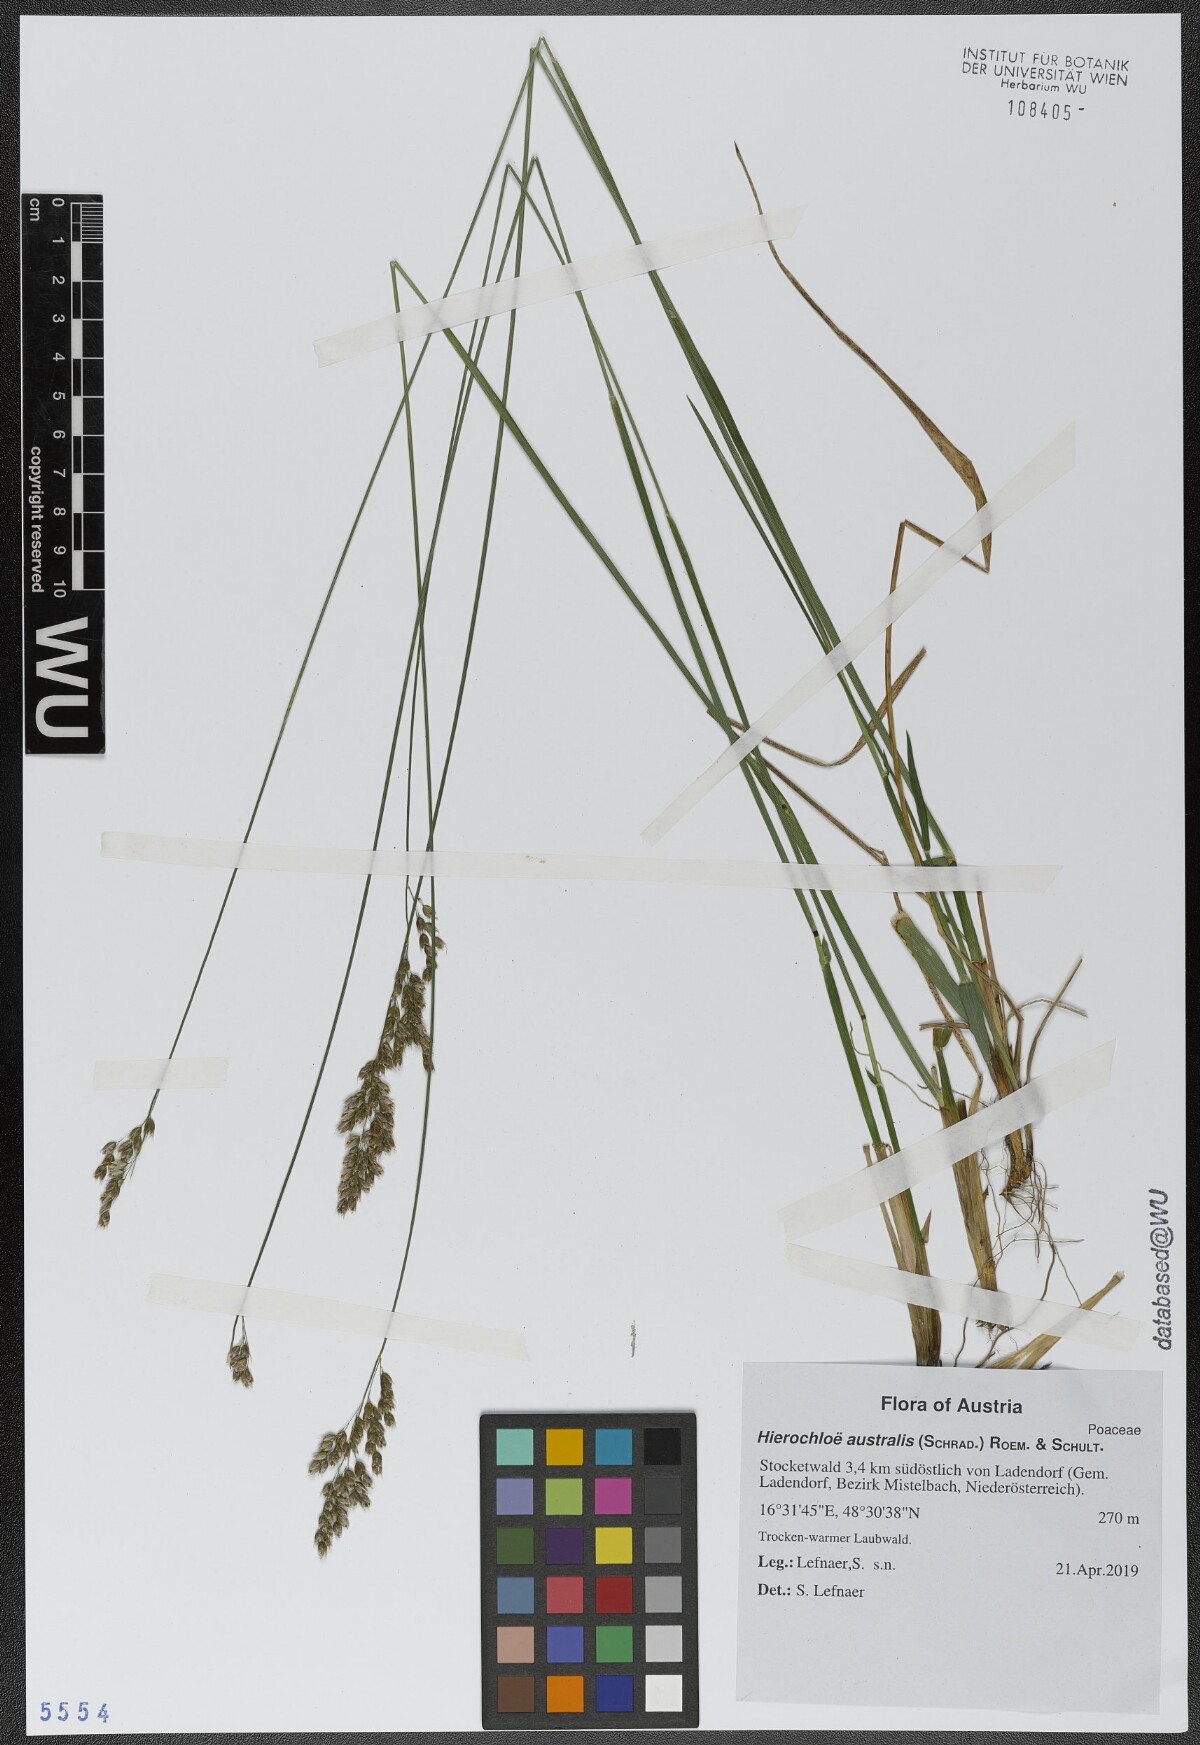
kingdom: Plantae
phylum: Tracheophyta
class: Liliopsida
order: Poales
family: Poaceae
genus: Anthoxanthum
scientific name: Anthoxanthum australe
